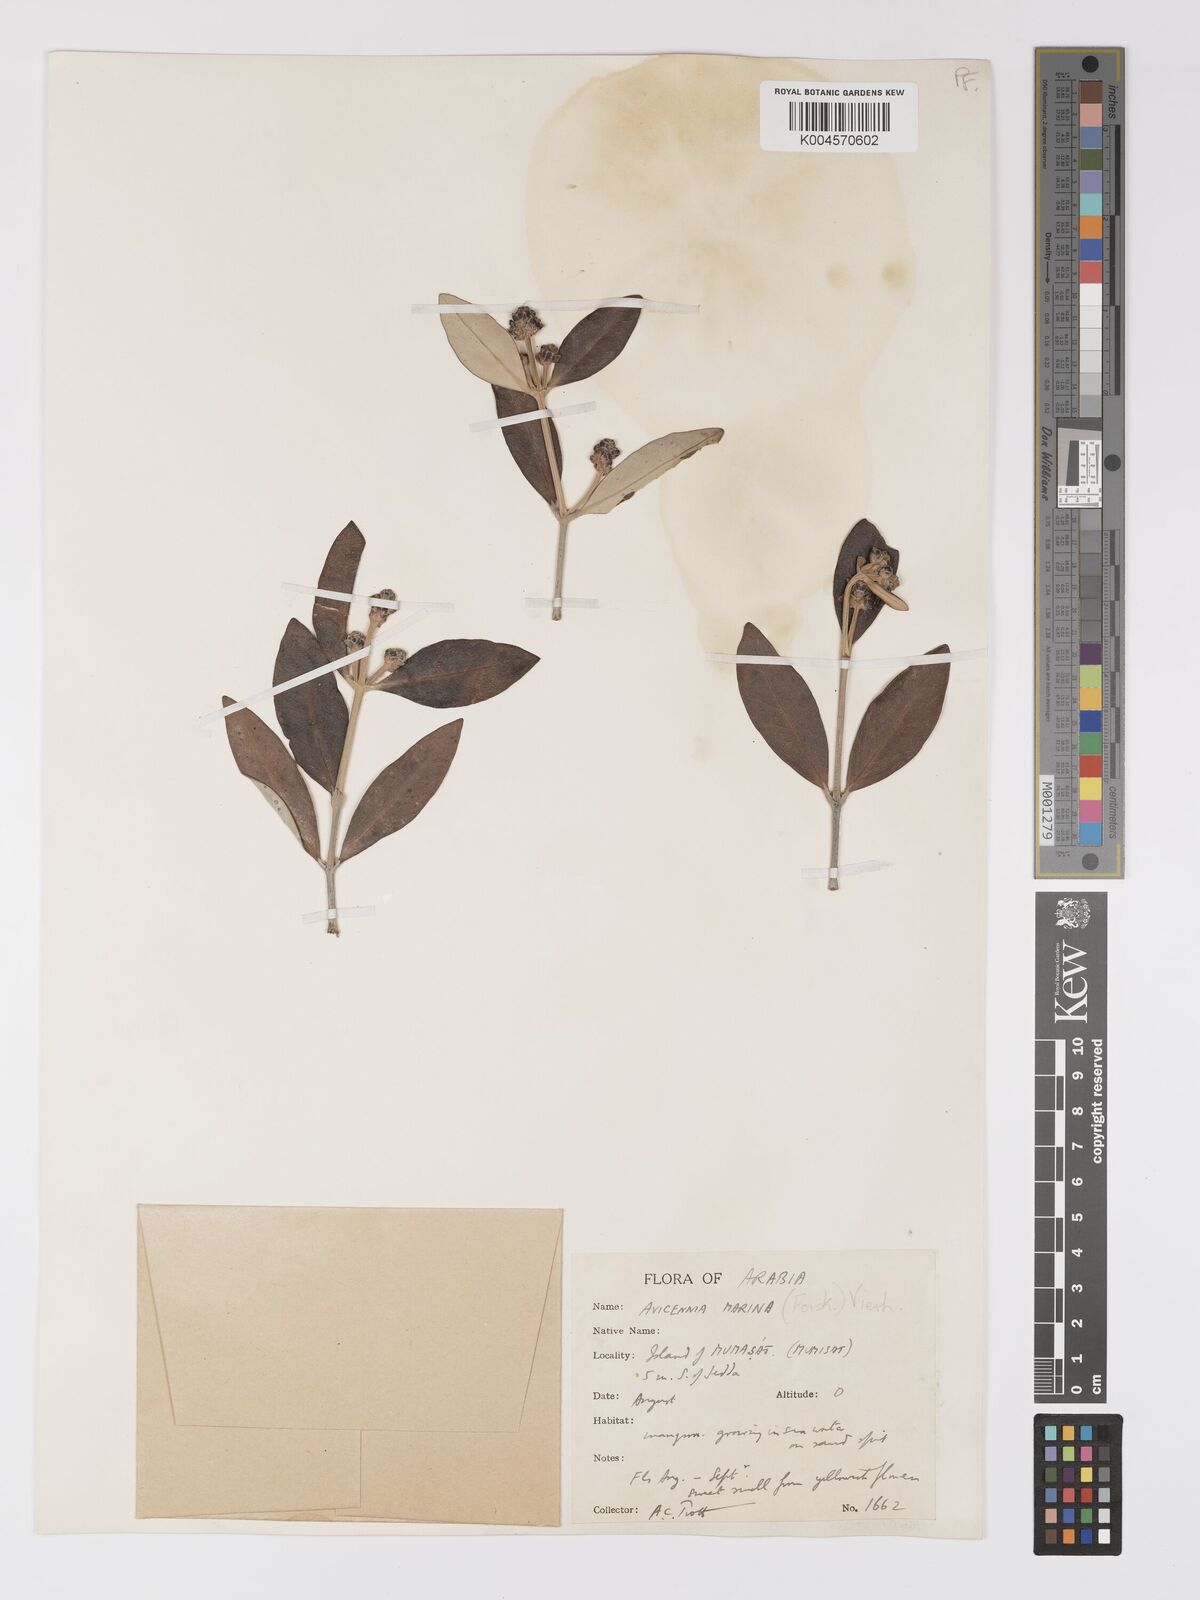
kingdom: Plantae
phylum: Tracheophyta
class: Magnoliopsida
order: Lamiales
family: Acanthaceae
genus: Avicennia
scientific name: Avicennia marina
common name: Gray mangrove
